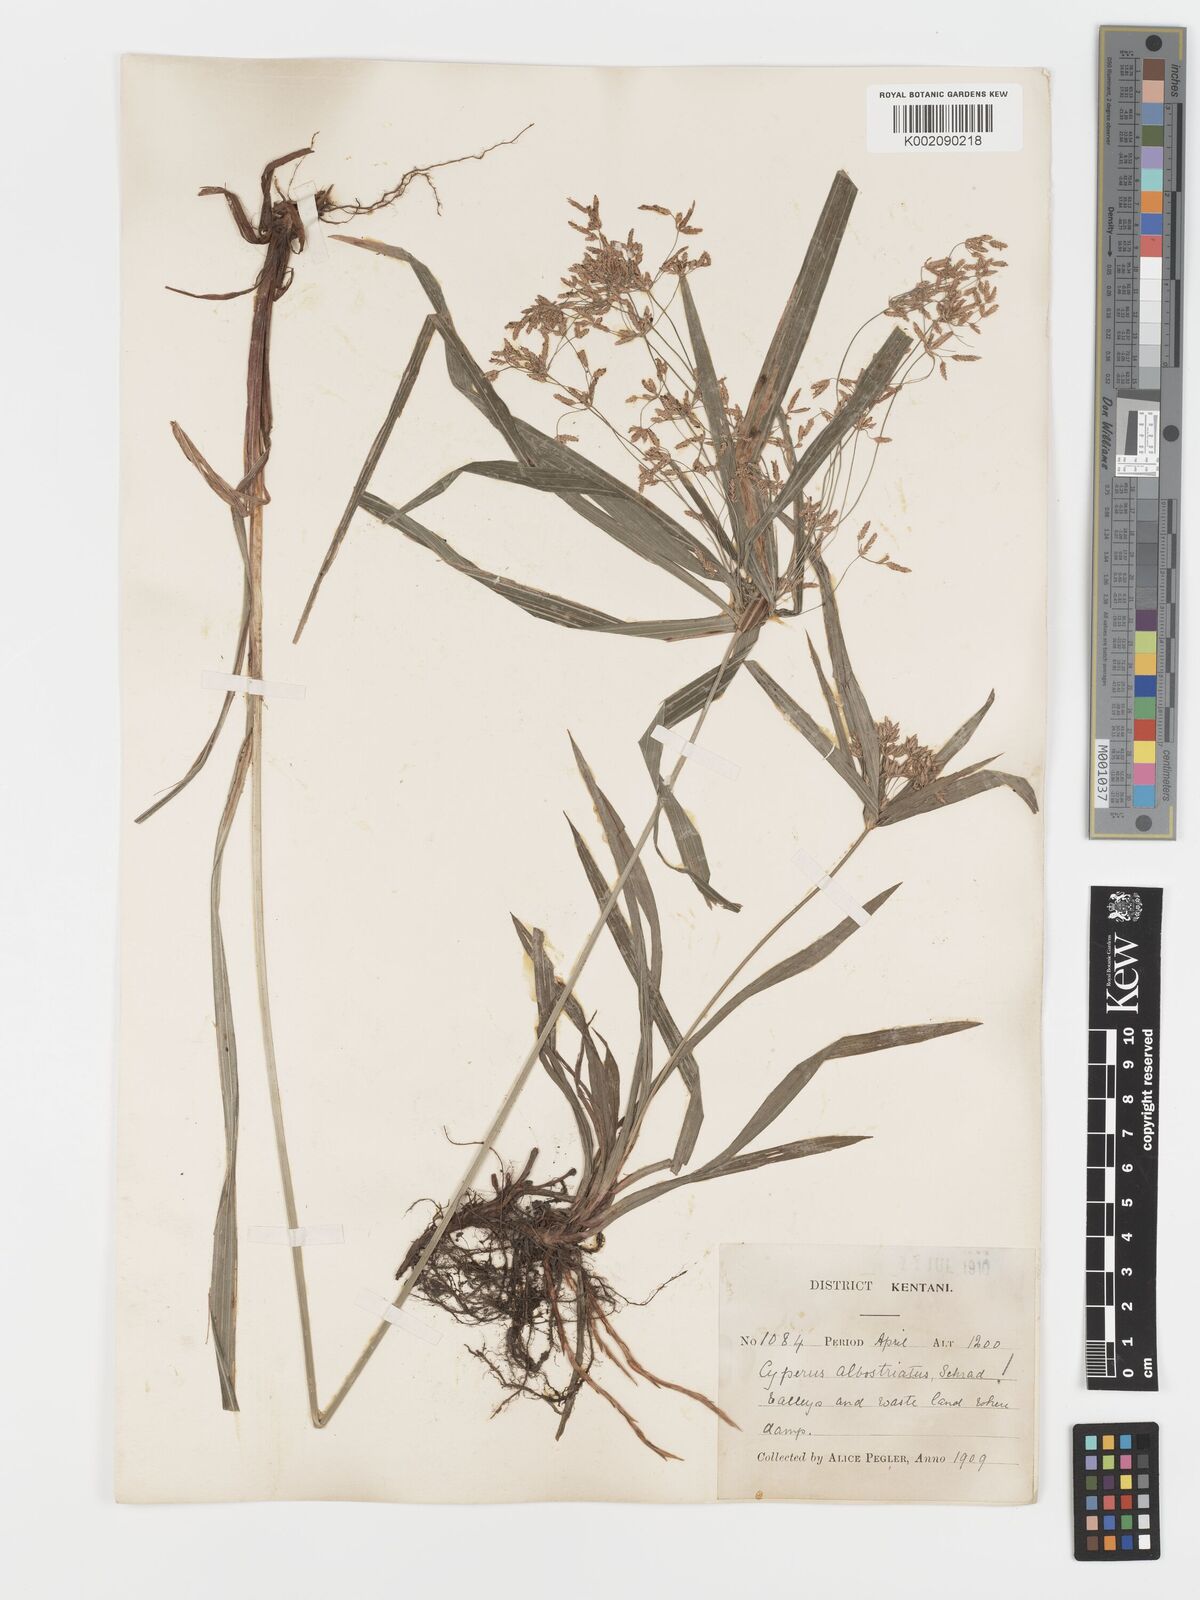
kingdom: Plantae
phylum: Tracheophyta
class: Liliopsida
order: Poales
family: Cyperaceae
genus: Cyperus
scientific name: Cyperus albostriatus
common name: Dwarf umbrella-grass
